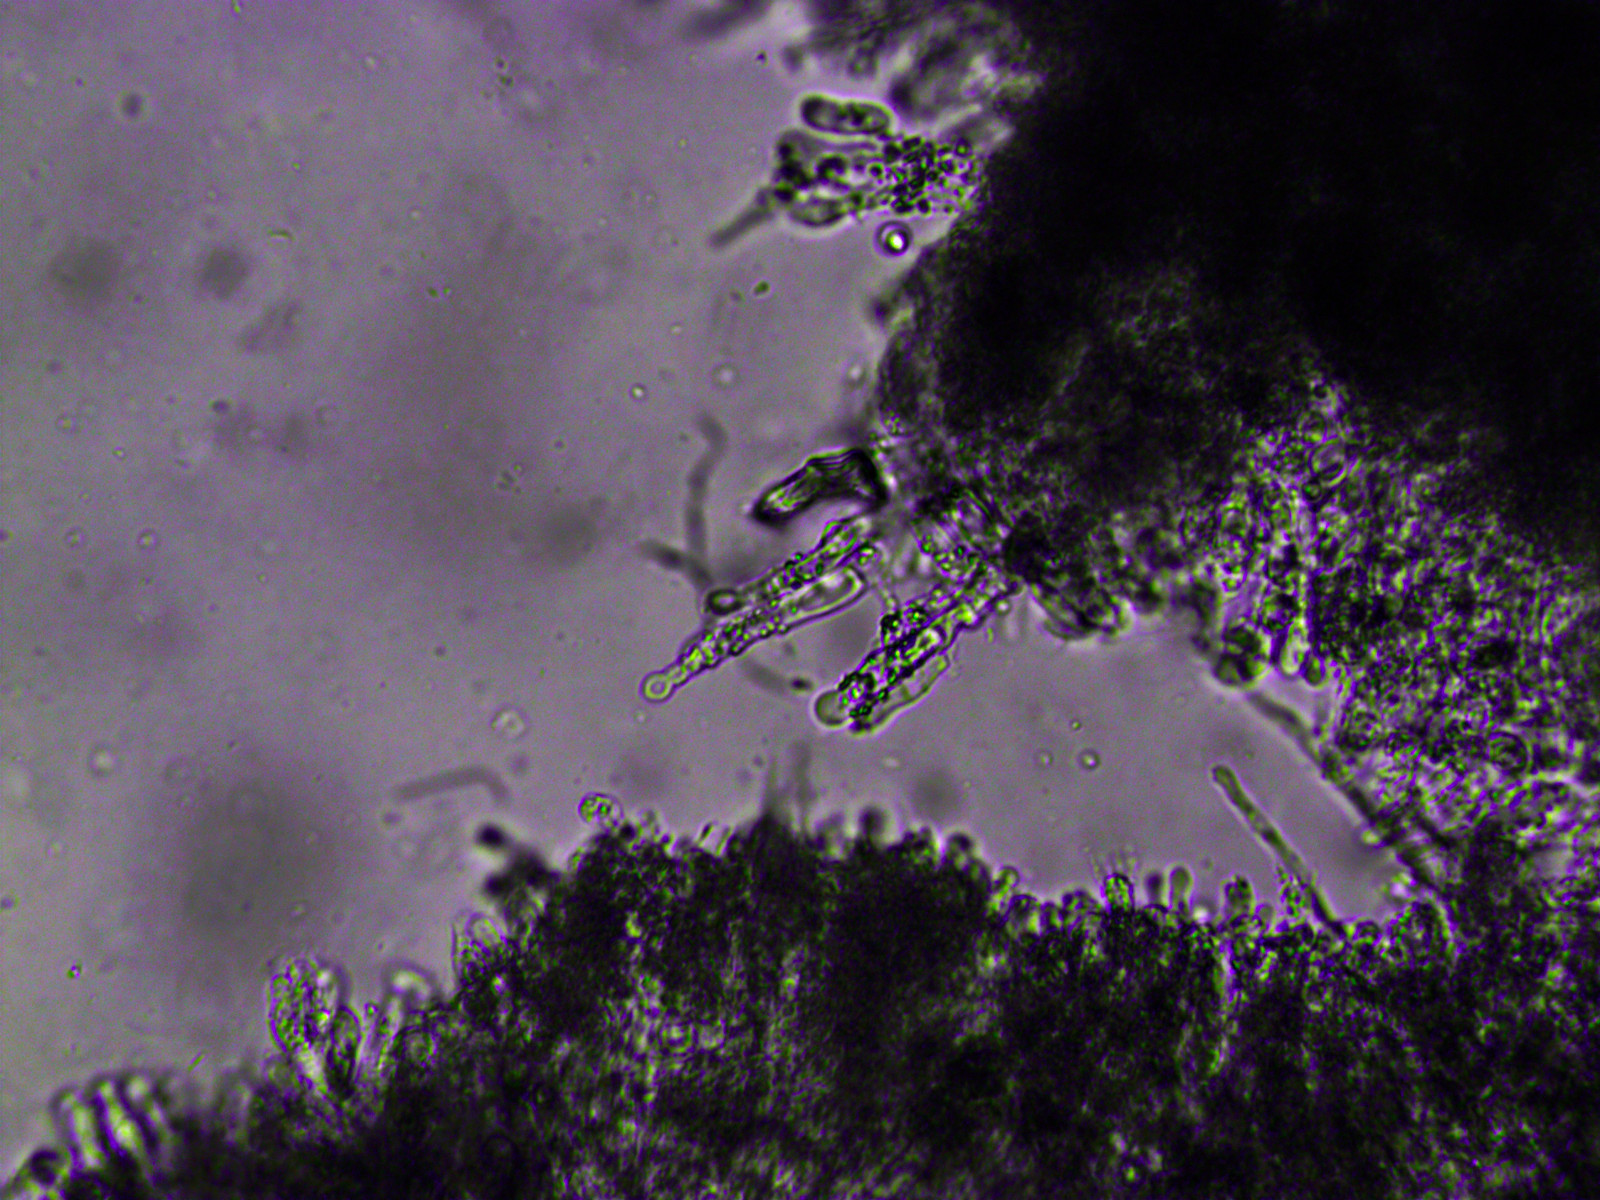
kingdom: Fungi
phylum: Basidiomycota
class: Agaricomycetes
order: Corticiales
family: Corticiaceae
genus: Lyomyces
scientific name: Lyomyces sambuci
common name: almindelig hyldehinde
